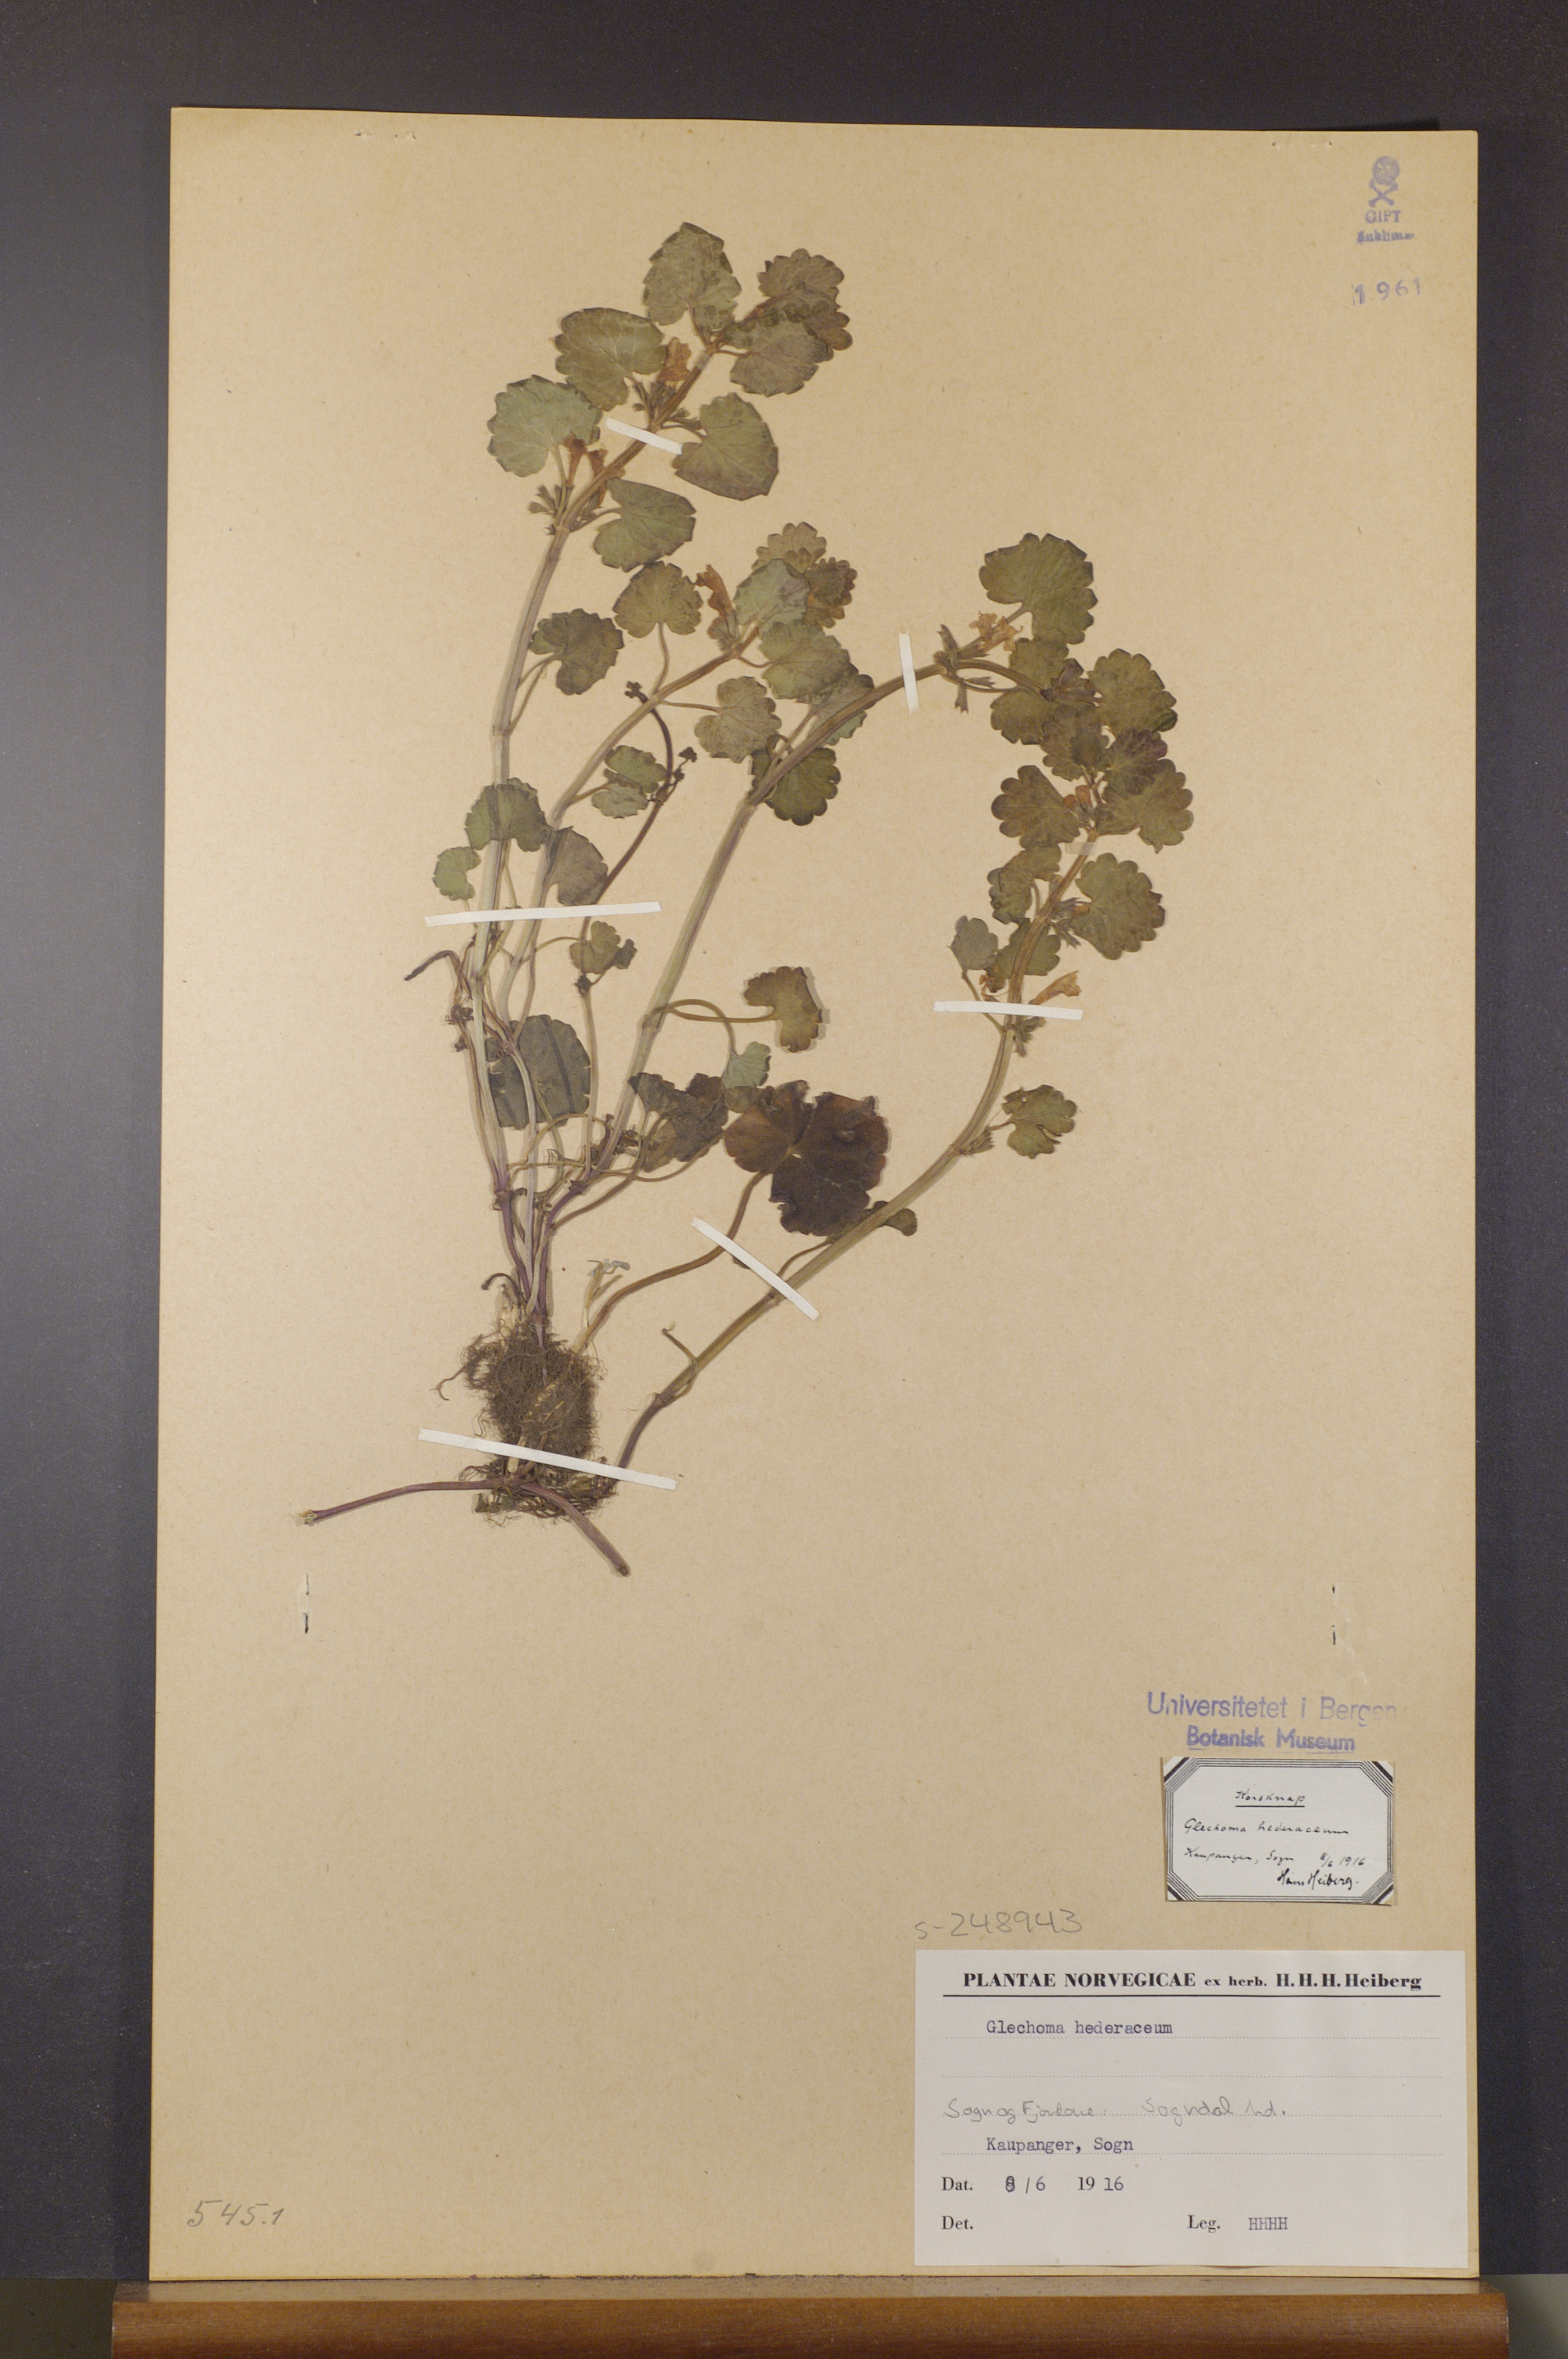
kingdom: Plantae
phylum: Tracheophyta
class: Magnoliopsida
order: Lamiales
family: Lamiaceae
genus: Glechoma
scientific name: Glechoma hederacea
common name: Ground ivy
